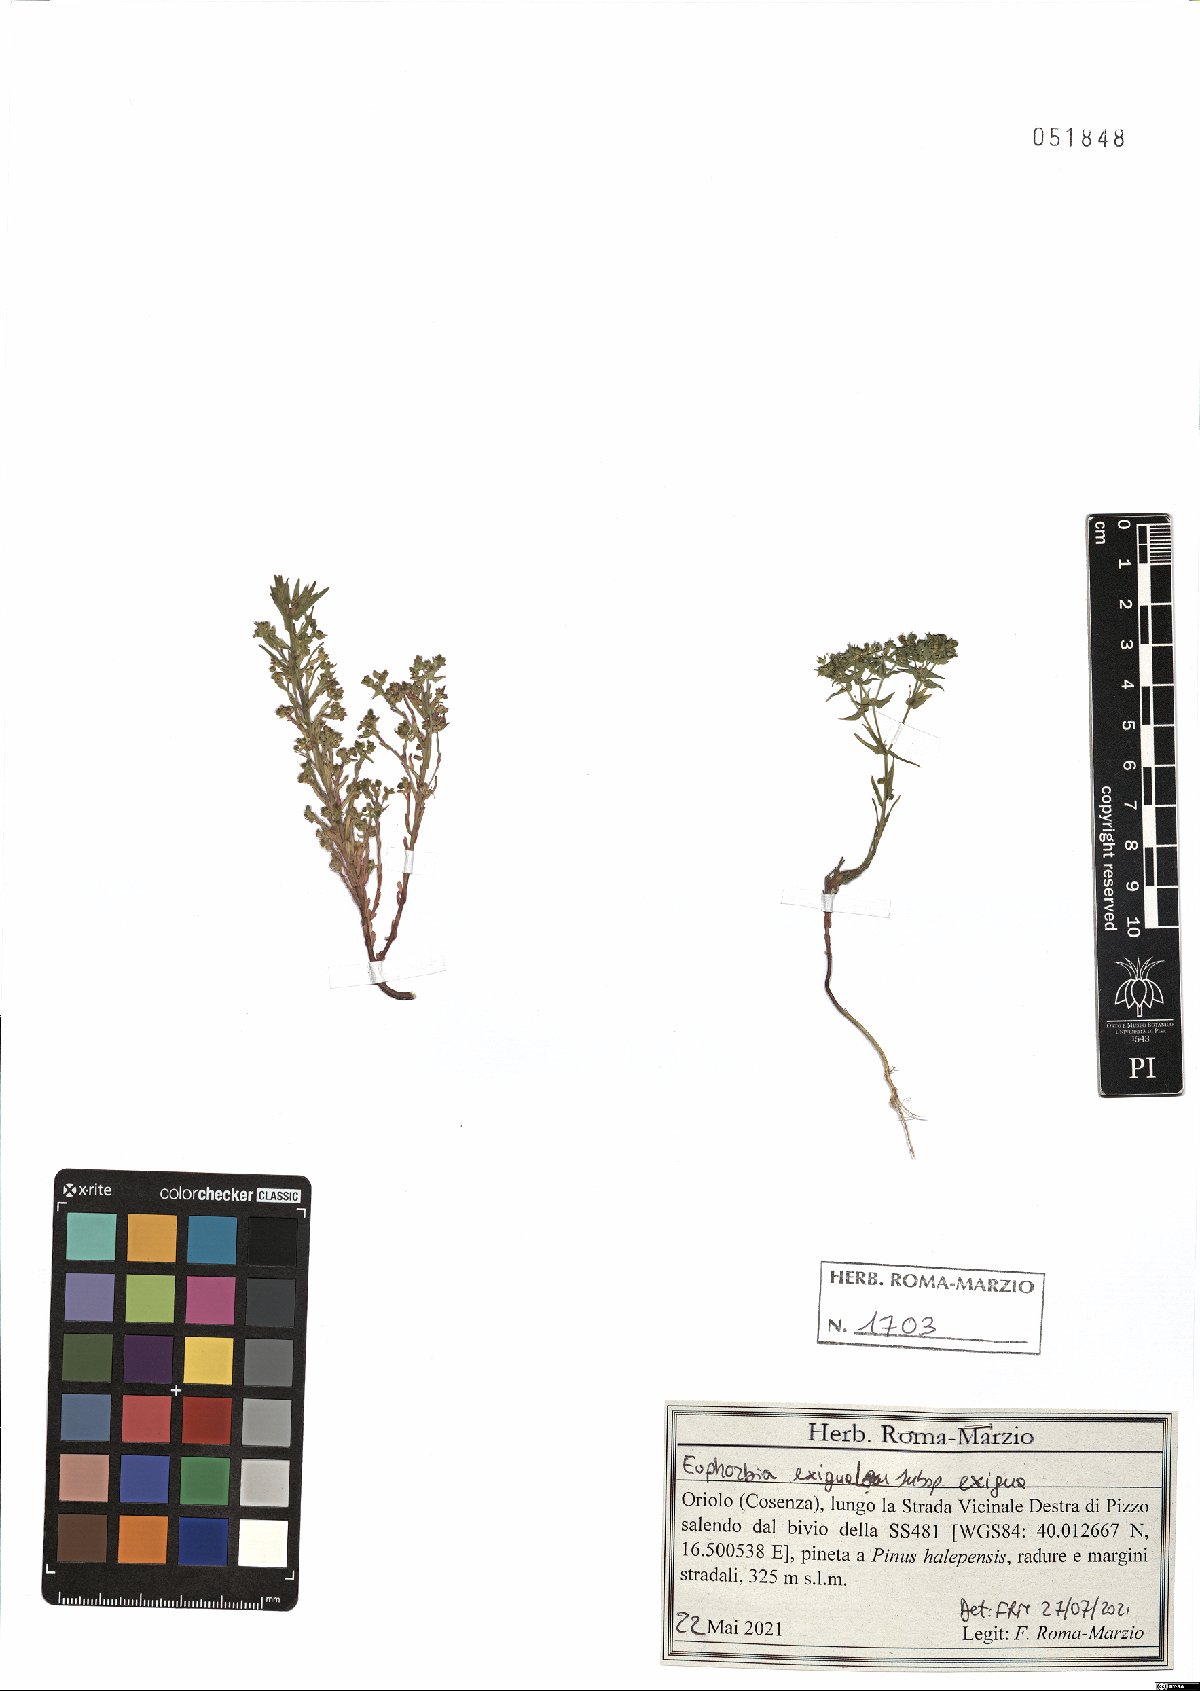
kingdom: Plantae
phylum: Tracheophyta
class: Magnoliopsida
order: Malpighiales
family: Euphorbiaceae
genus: Euphorbia
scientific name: Euphorbia exigua
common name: Dwarf spurge
